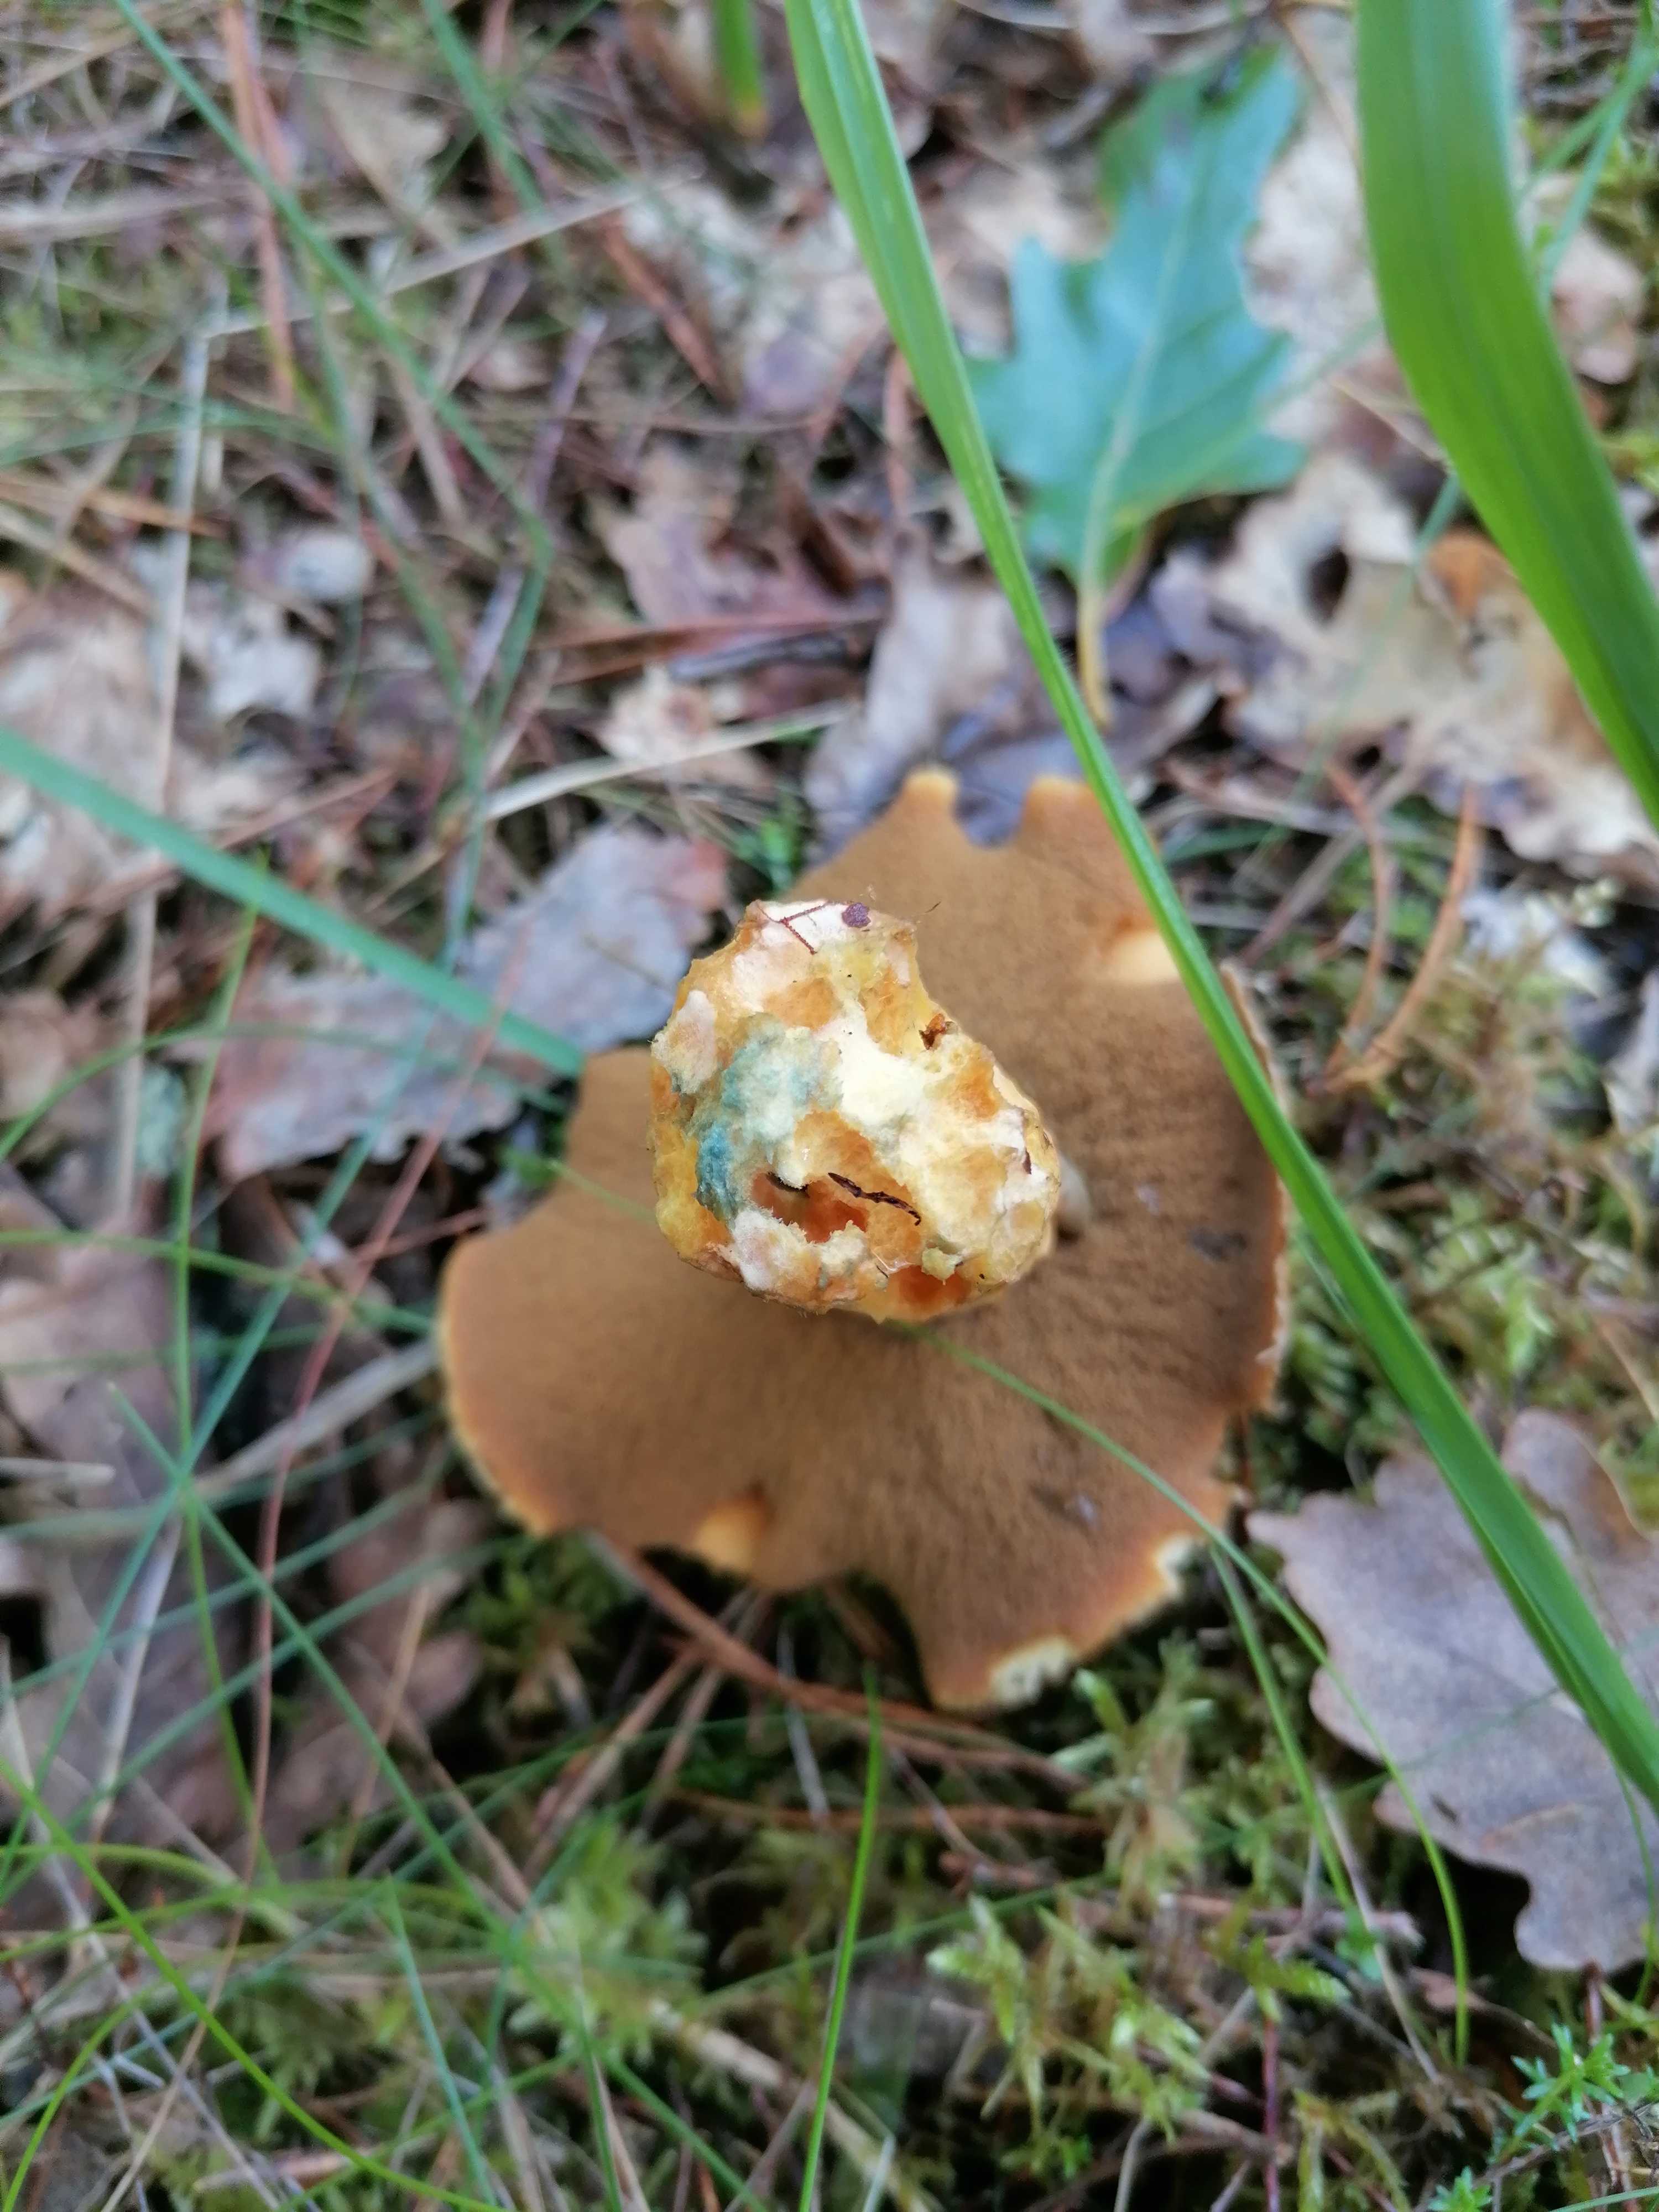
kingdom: Fungi
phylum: Basidiomycota
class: Agaricomycetes
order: Boletales
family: Suillaceae
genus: Suillus
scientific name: Suillus variegatus
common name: broget slimrørhat
